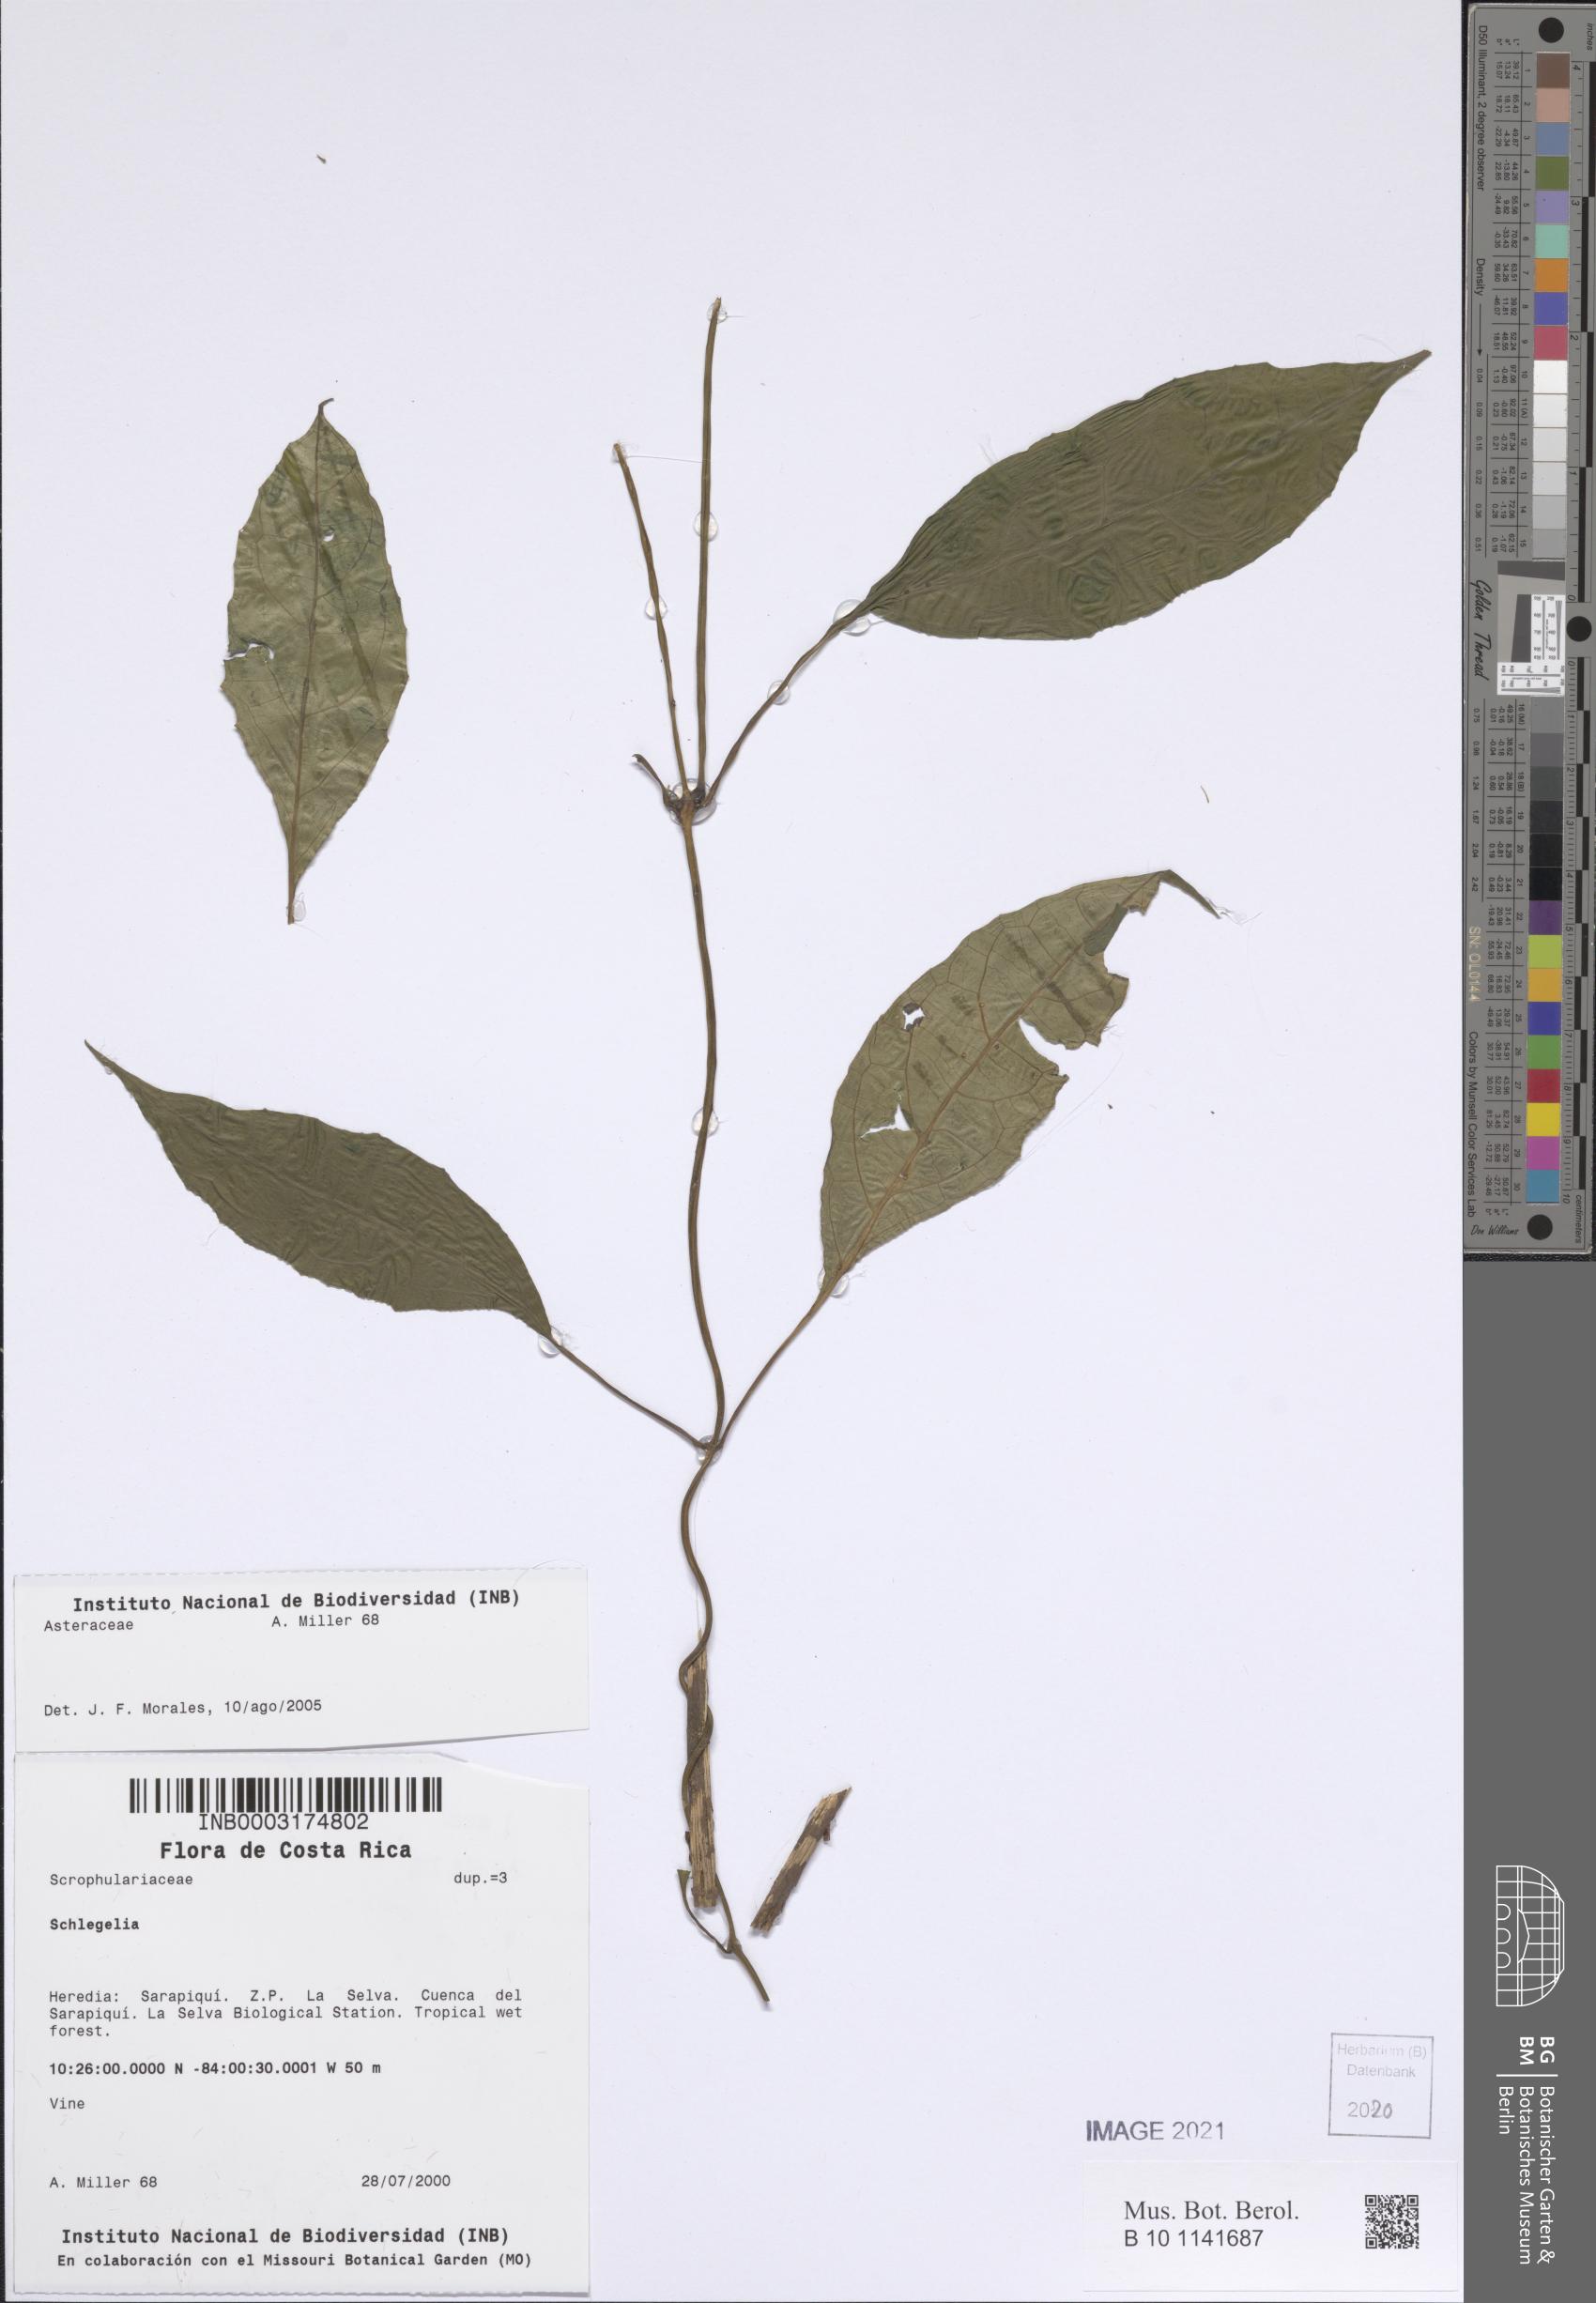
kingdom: Plantae
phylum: Tracheophyta
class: Magnoliopsida
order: Asterales
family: Asteraceae
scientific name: Asteraceae
